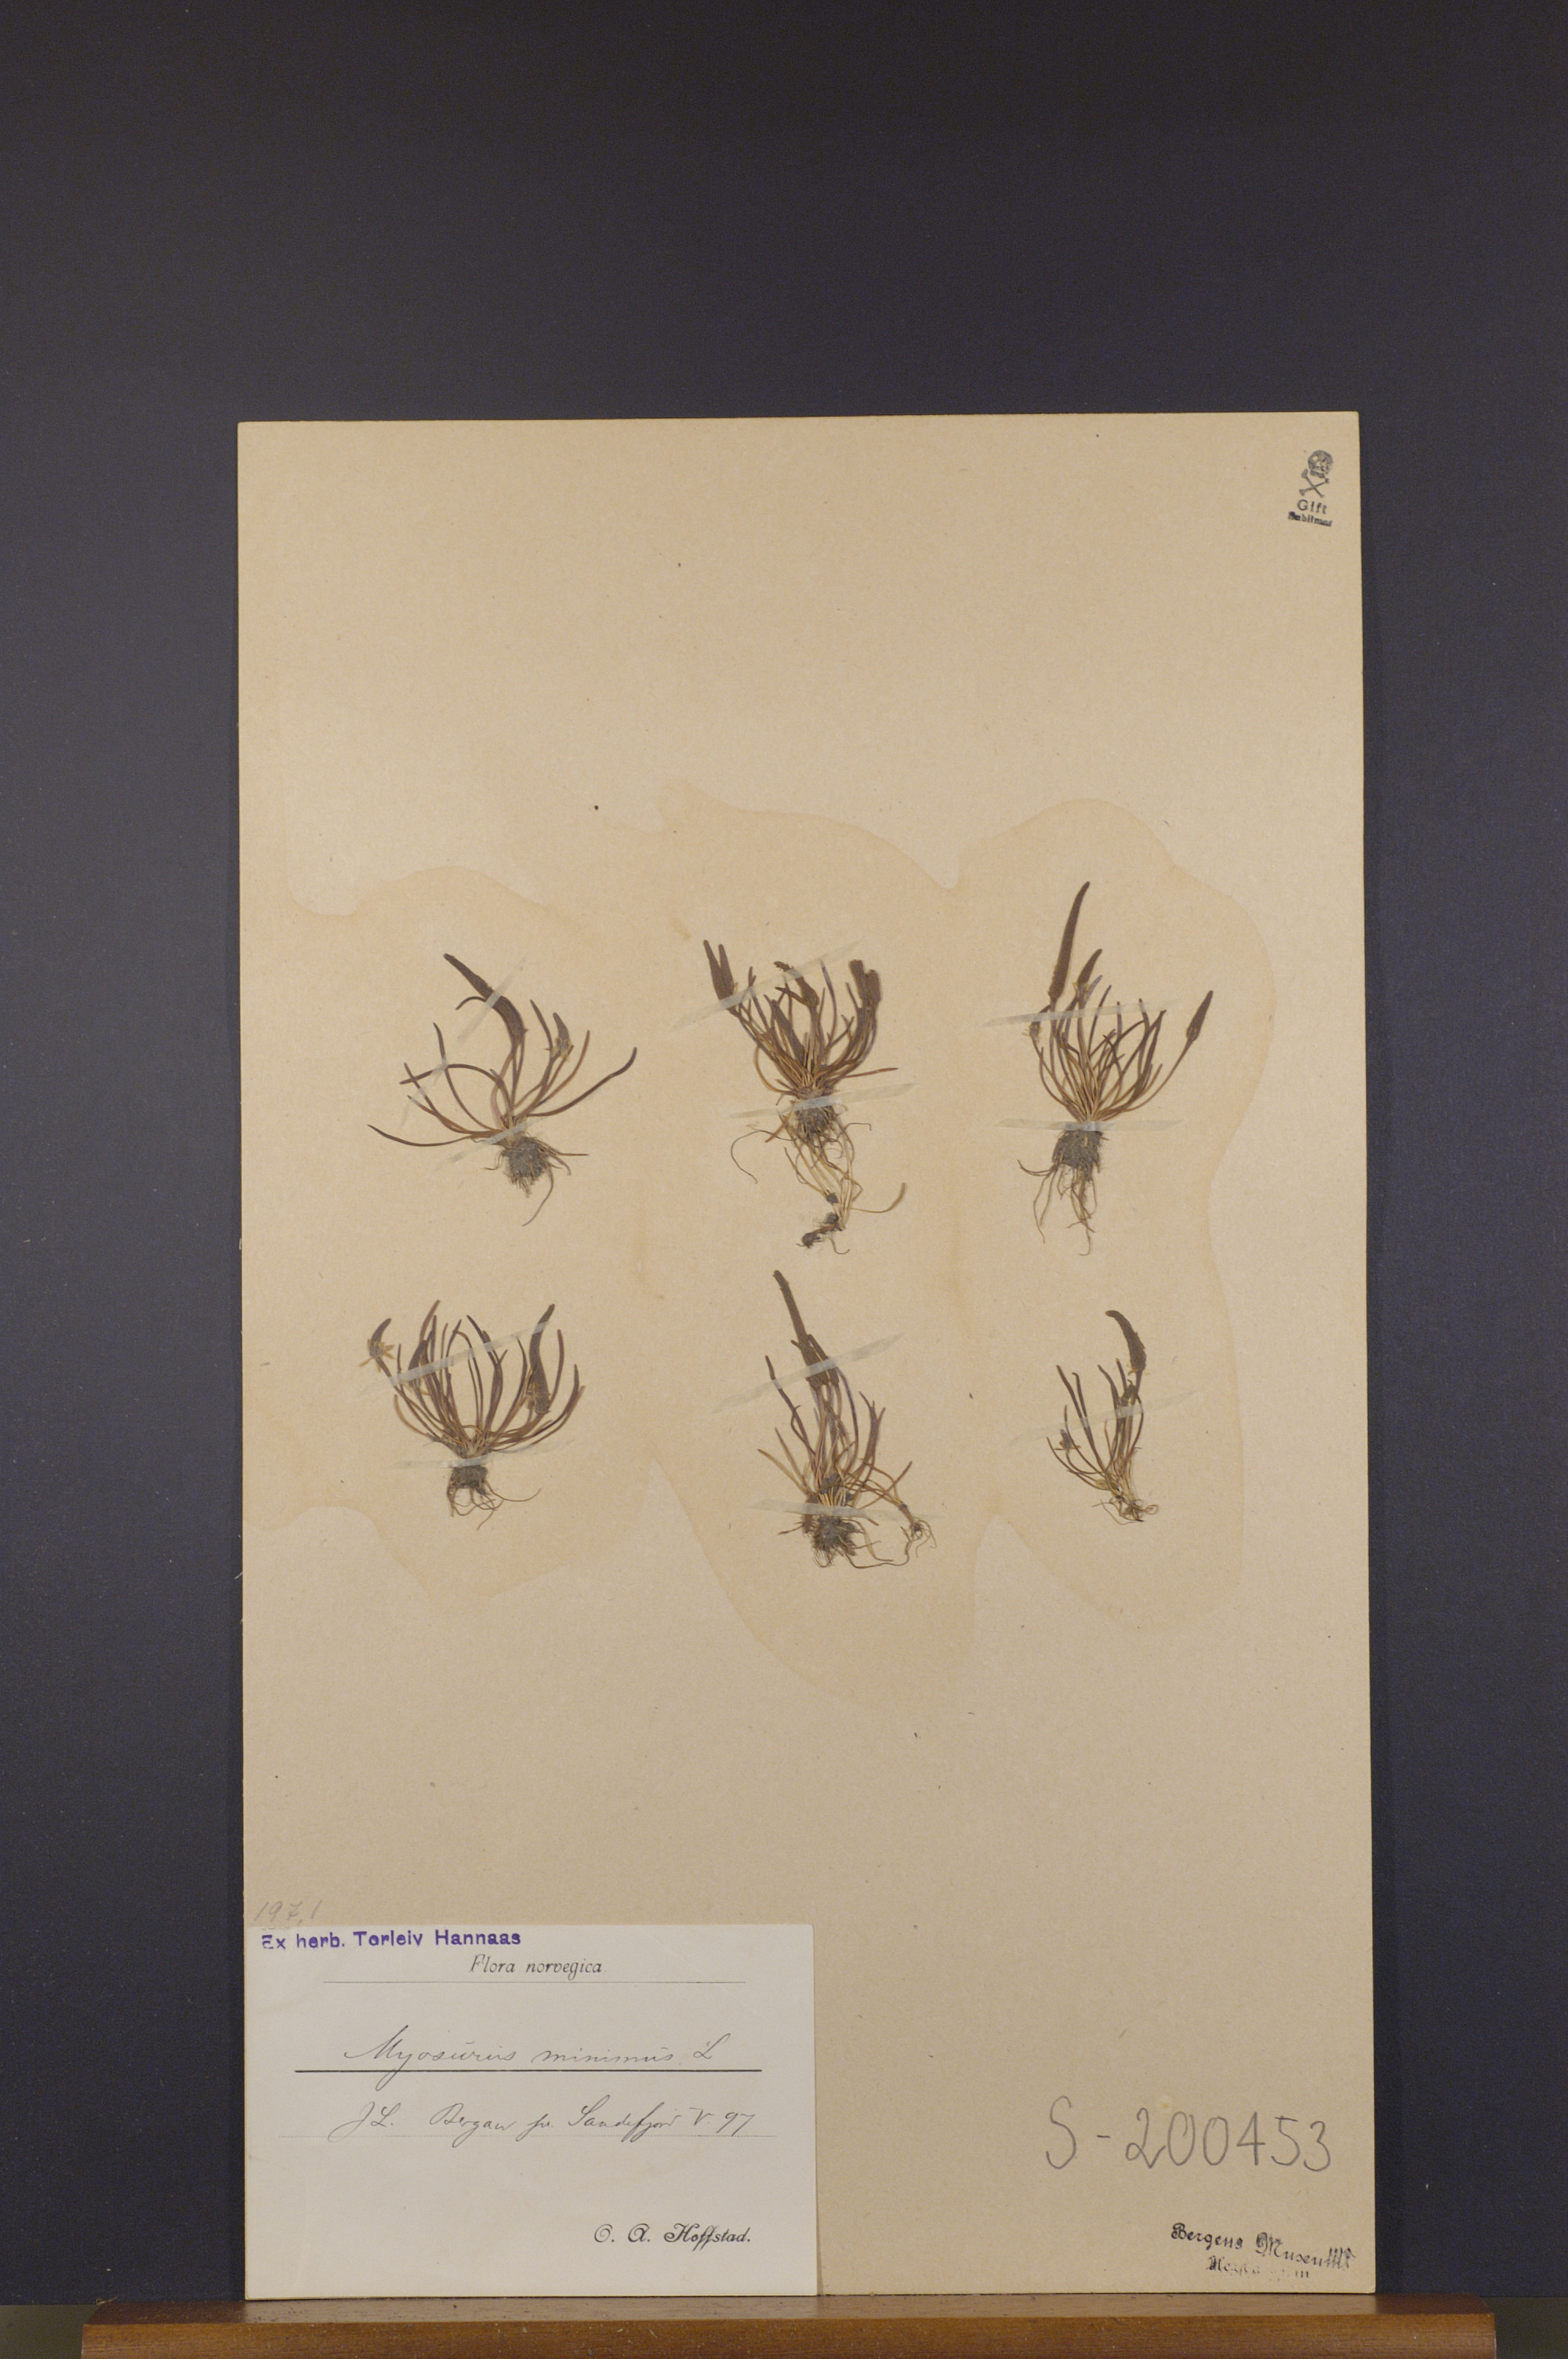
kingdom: Plantae
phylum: Tracheophyta
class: Magnoliopsida
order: Ranunculales
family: Ranunculaceae
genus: Myosurus
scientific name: Myosurus minimus
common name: Mousetail
